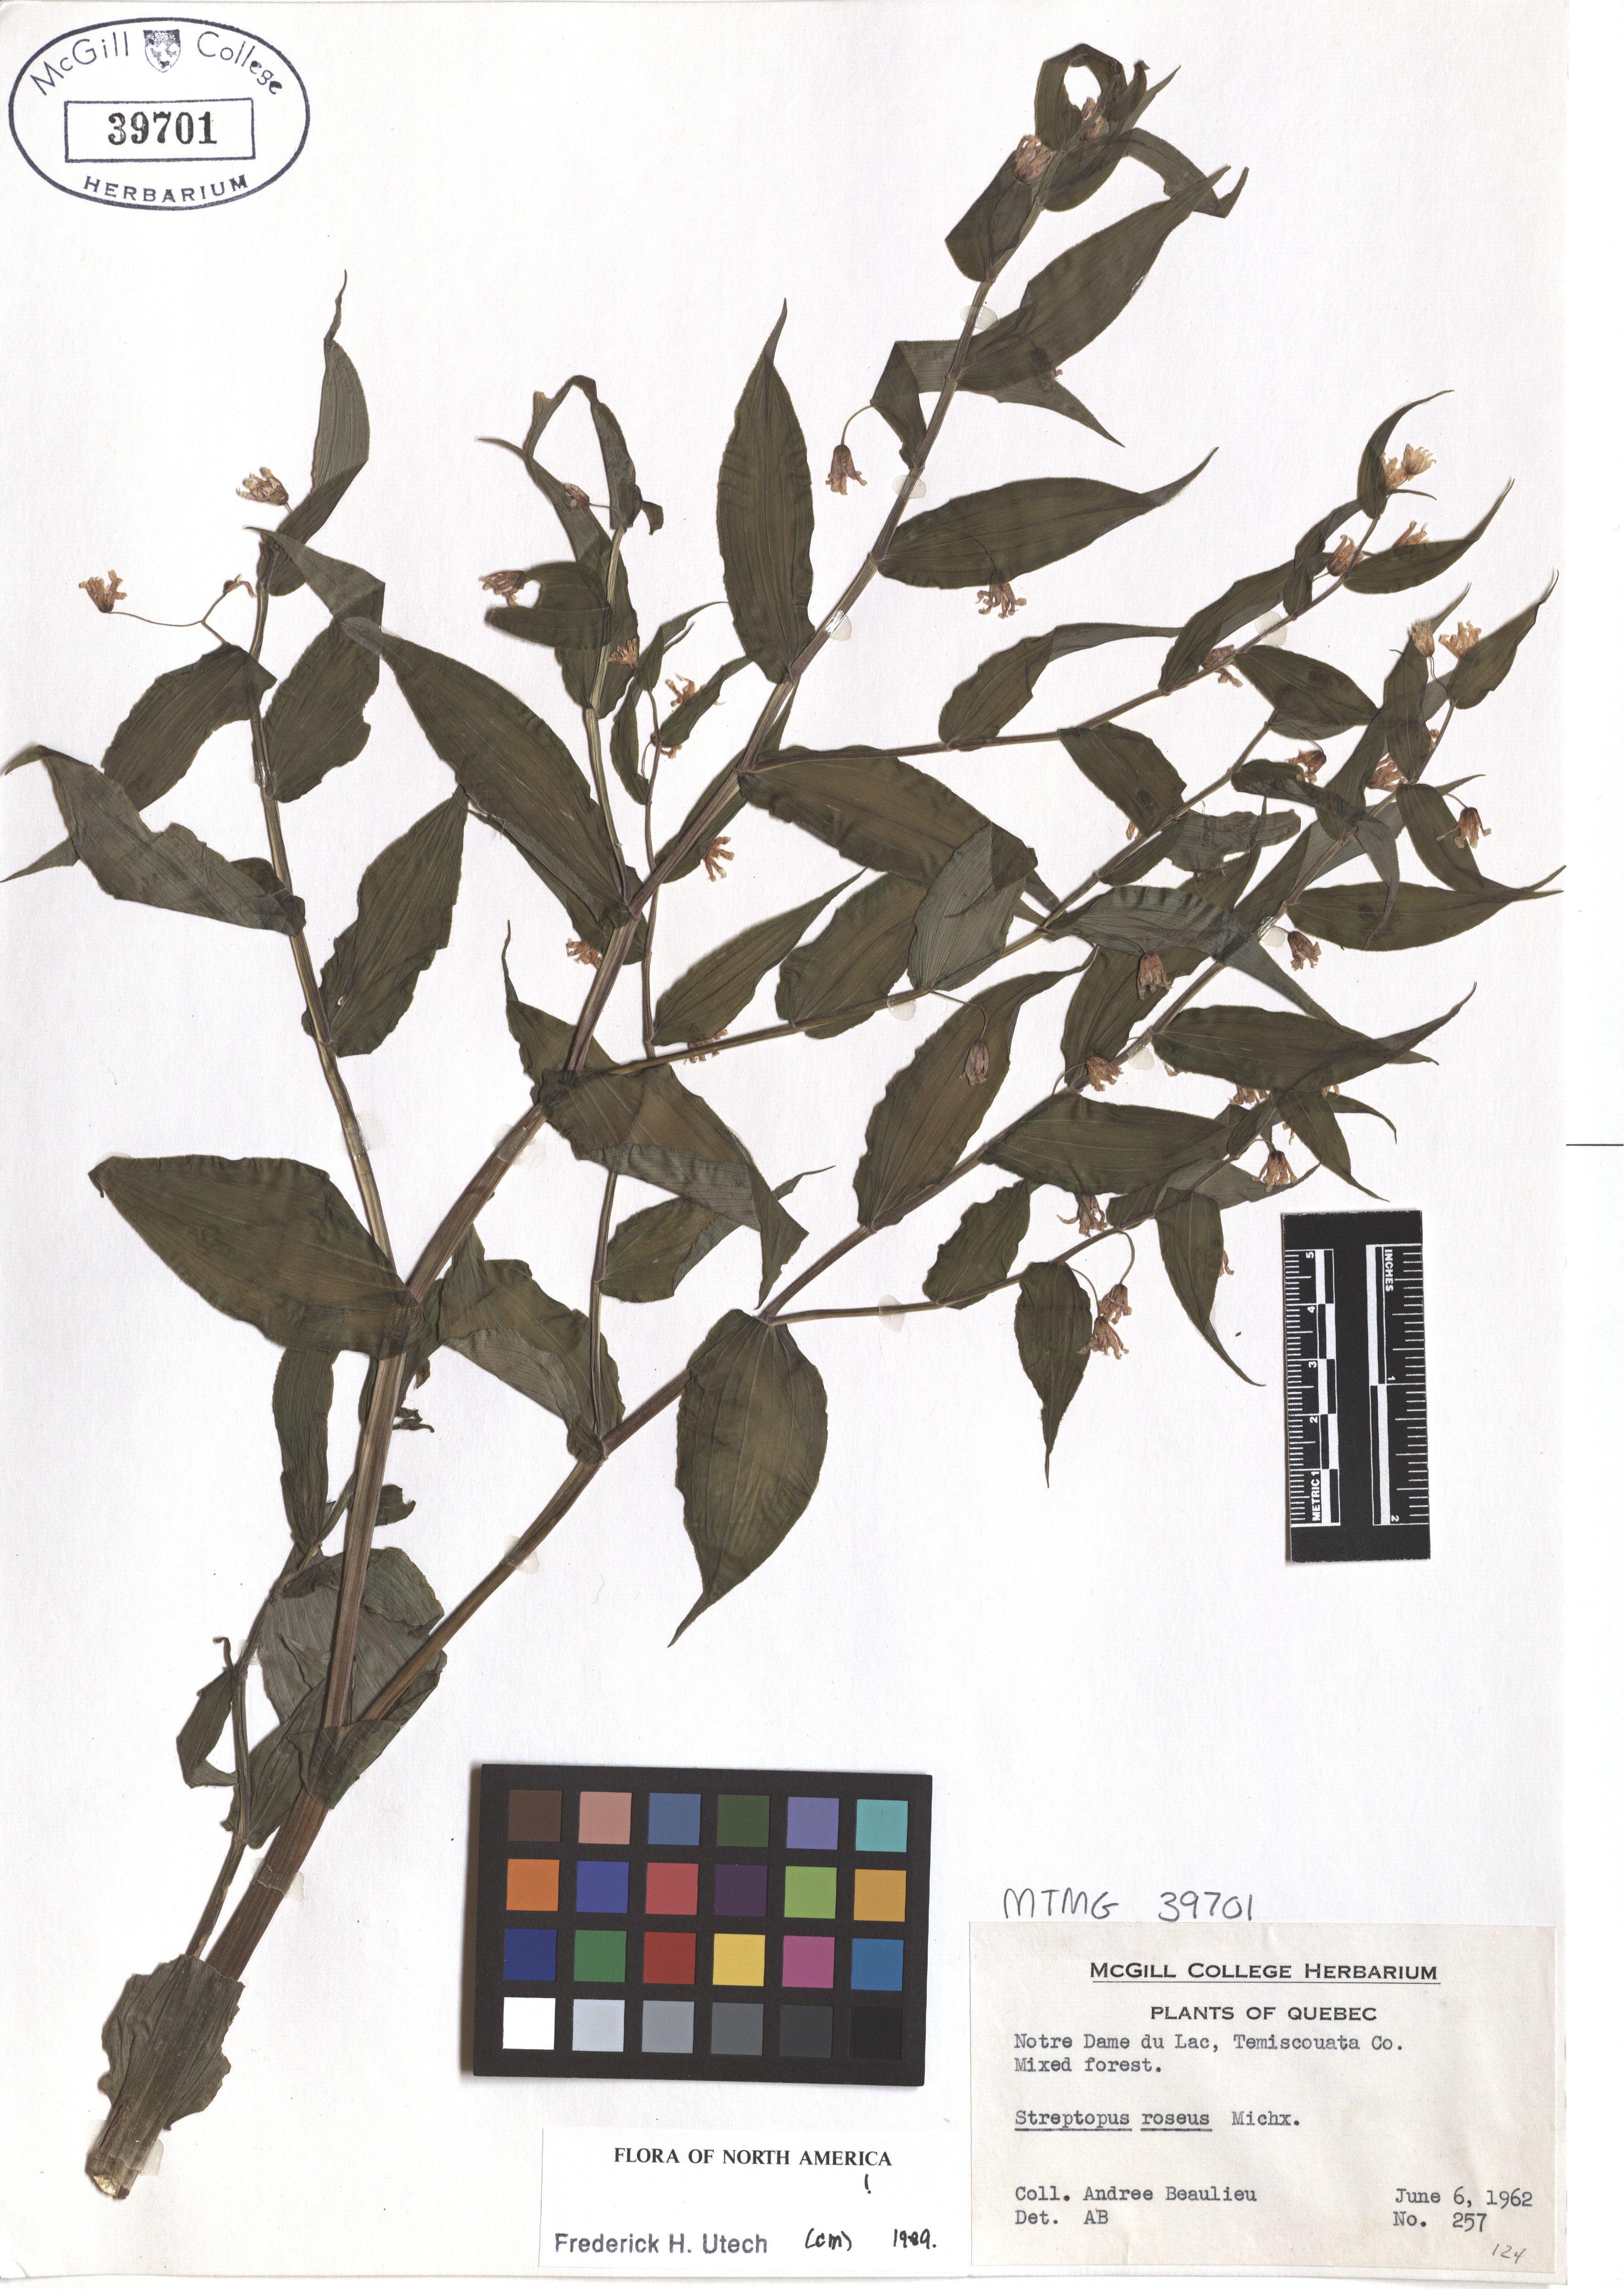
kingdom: Plantae
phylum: Tracheophyta
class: Liliopsida
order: Liliales
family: Liliaceae
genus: Streptopus
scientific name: Streptopus lanceolatus
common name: Rose mandarin
